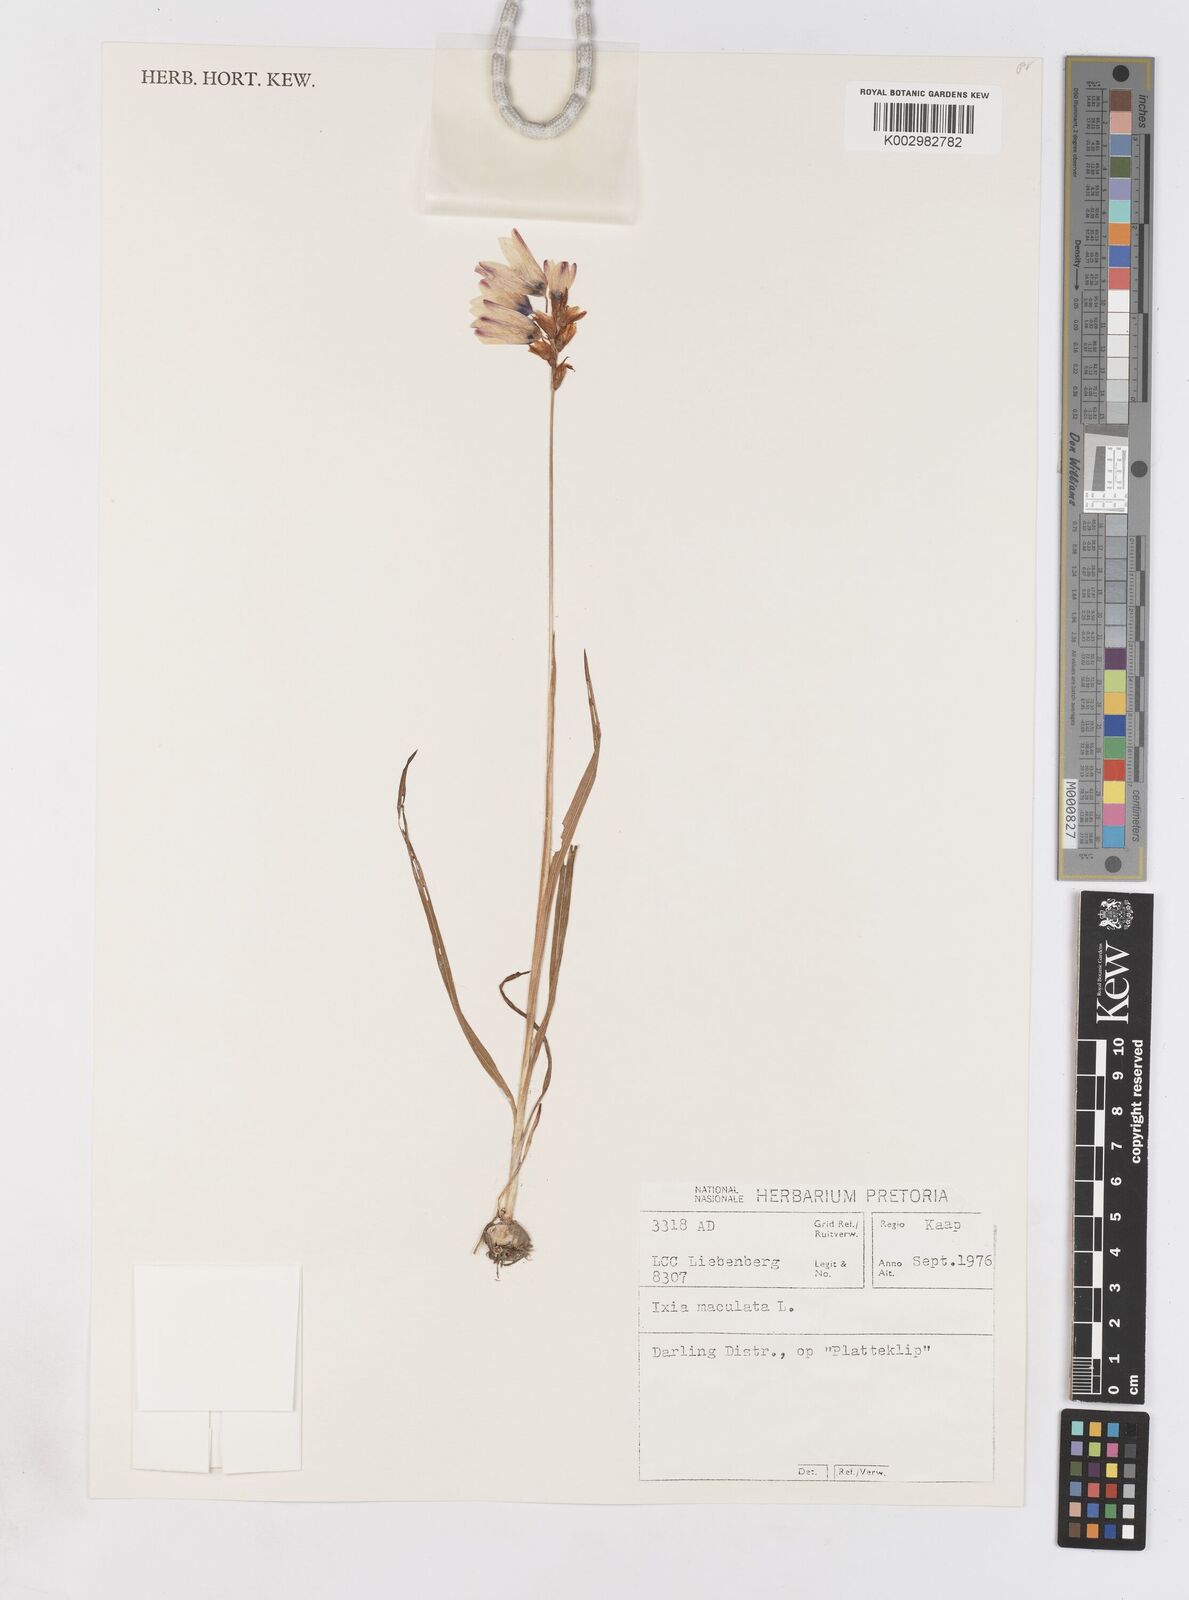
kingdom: Plantae
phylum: Tracheophyta
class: Liliopsida
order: Asparagales
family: Iridaceae
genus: Ixia
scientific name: Ixia maculata
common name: Spotted african cornlily
